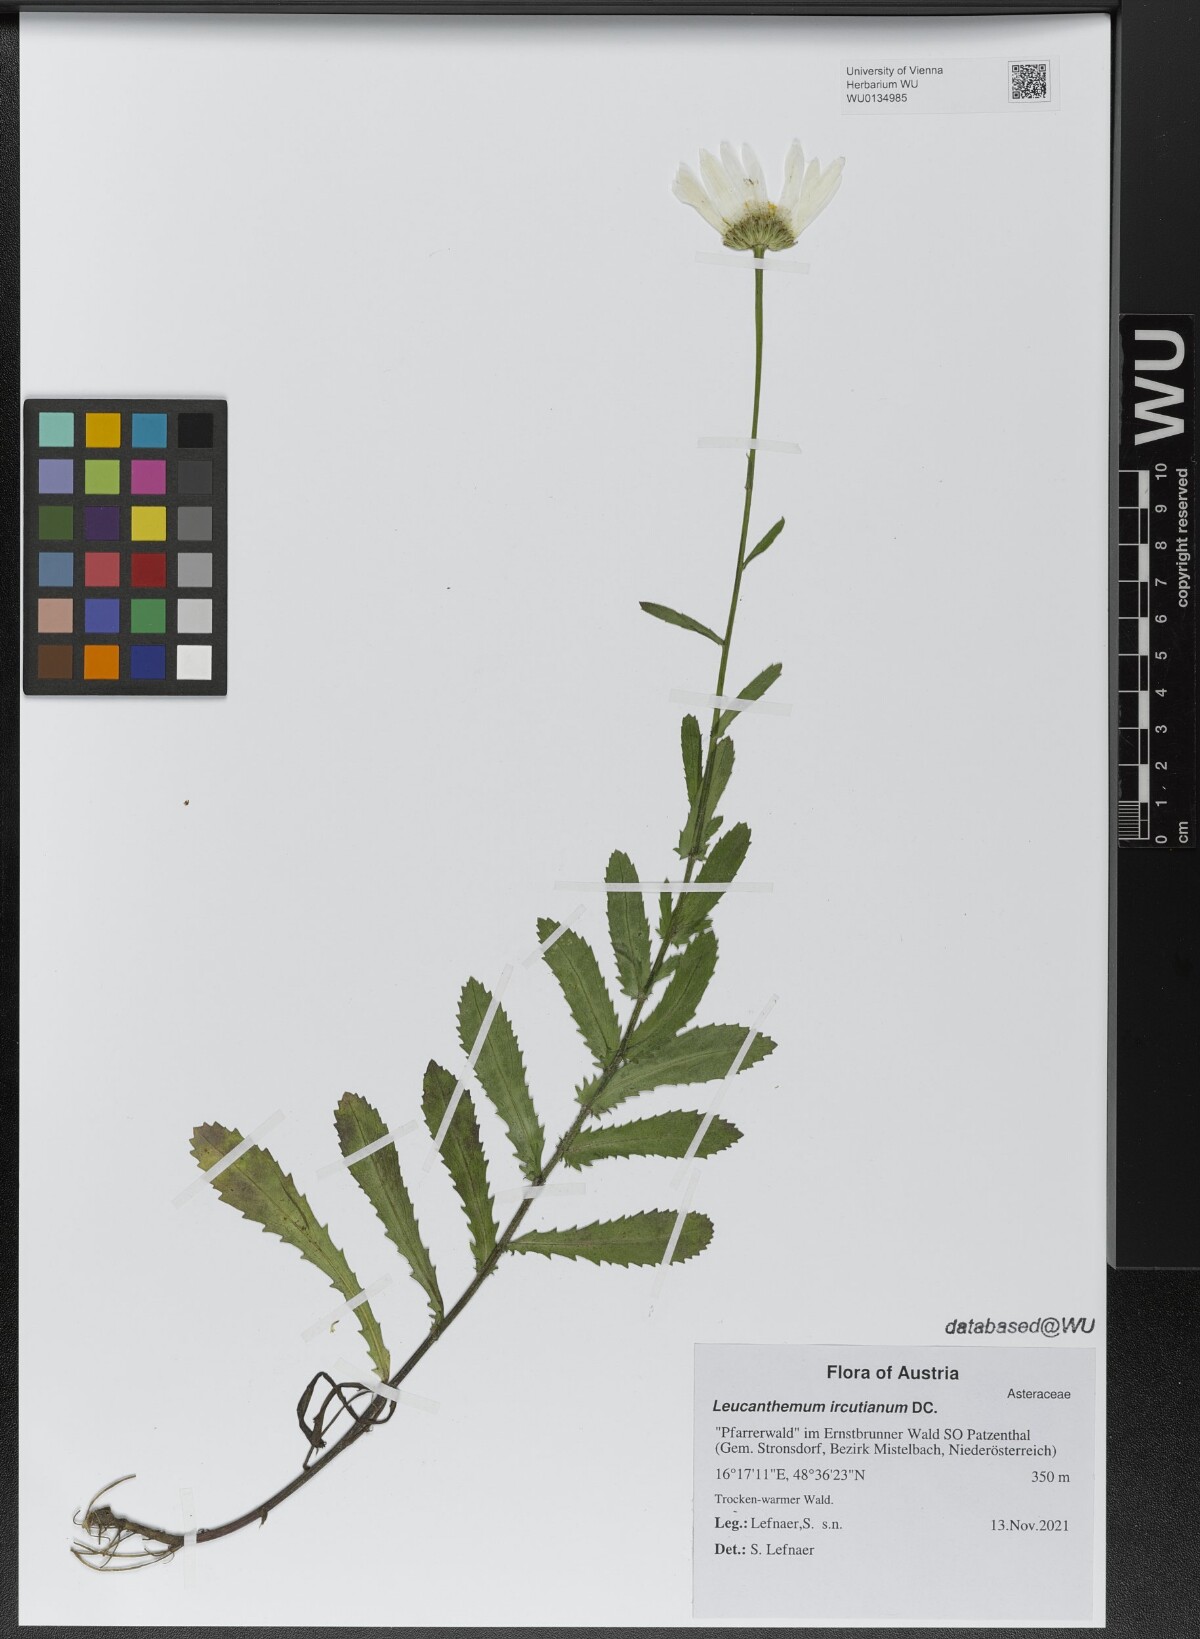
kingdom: Plantae
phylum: Tracheophyta
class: Magnoliopsida
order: Asterales
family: Asteraceae
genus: Leucanthemum
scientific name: Leucanthemum ircutianum
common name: Daisy
